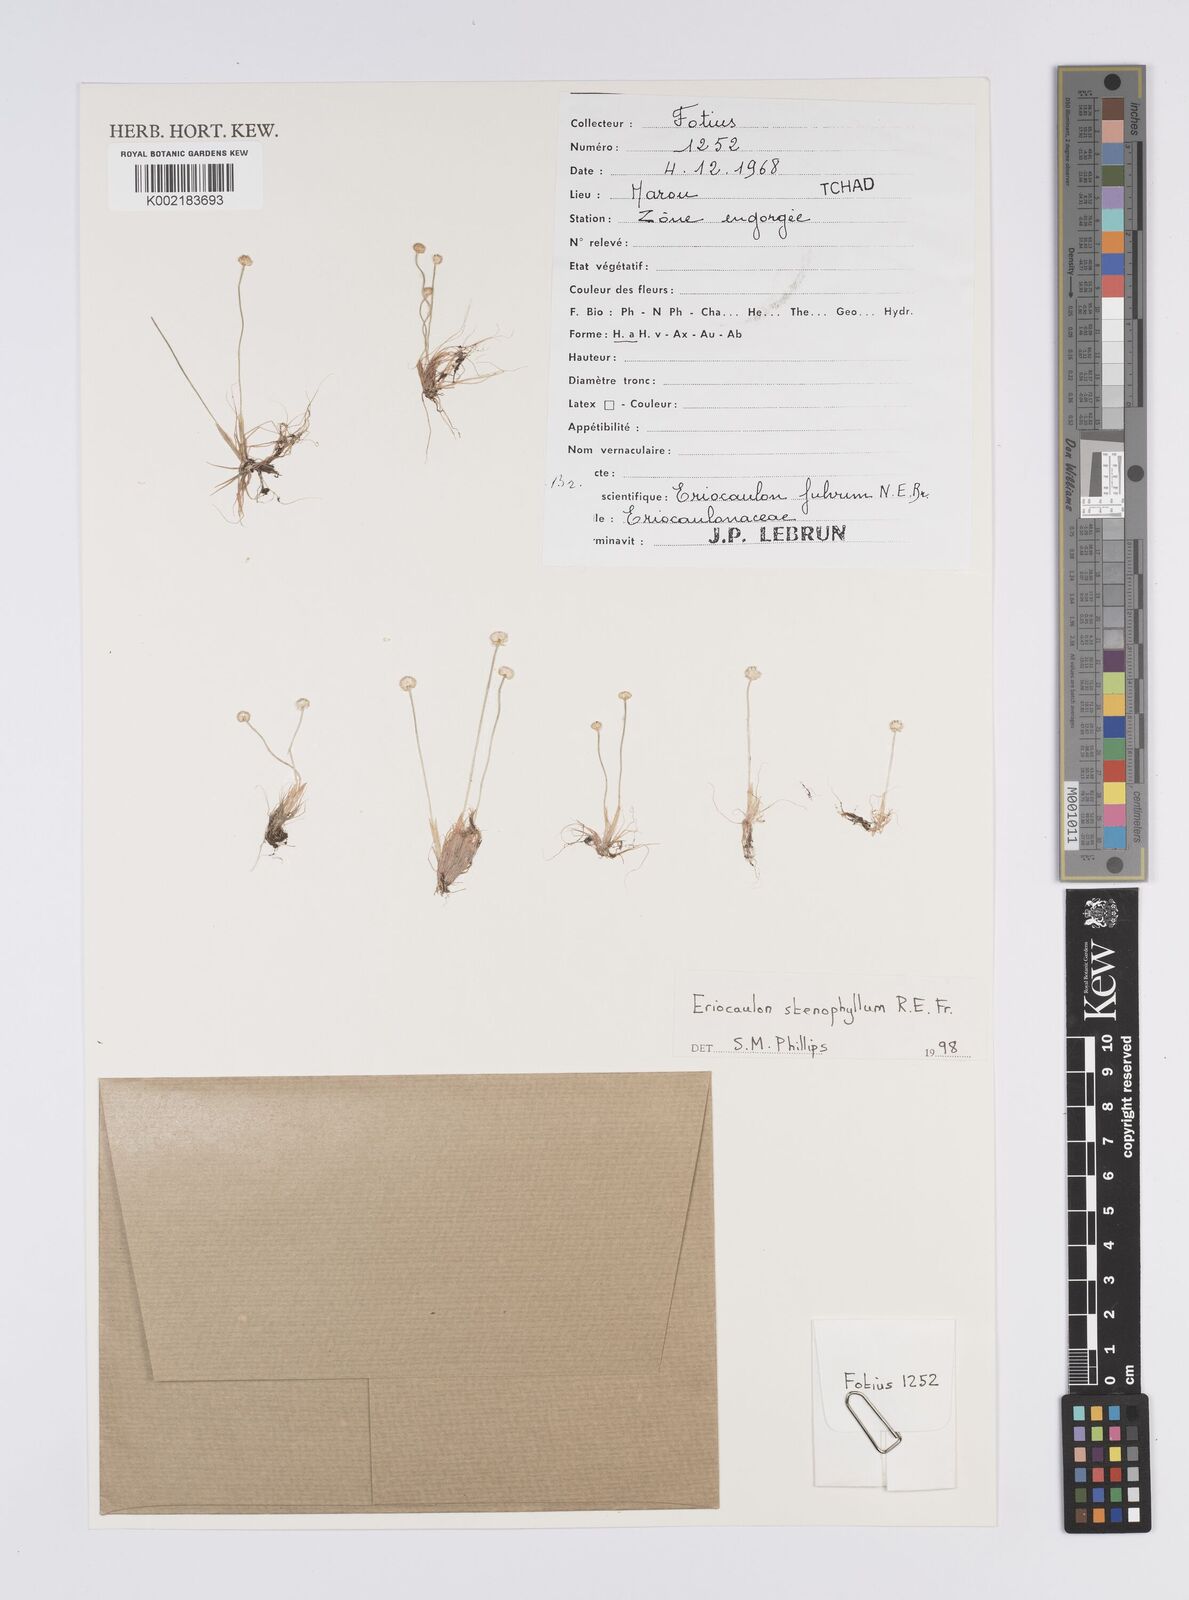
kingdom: Plantae
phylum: Tracheophyta
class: Liliopsida
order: Poales
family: Eriocaulaceae
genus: Eriocaulon
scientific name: Eriocaulon stenophyllum
